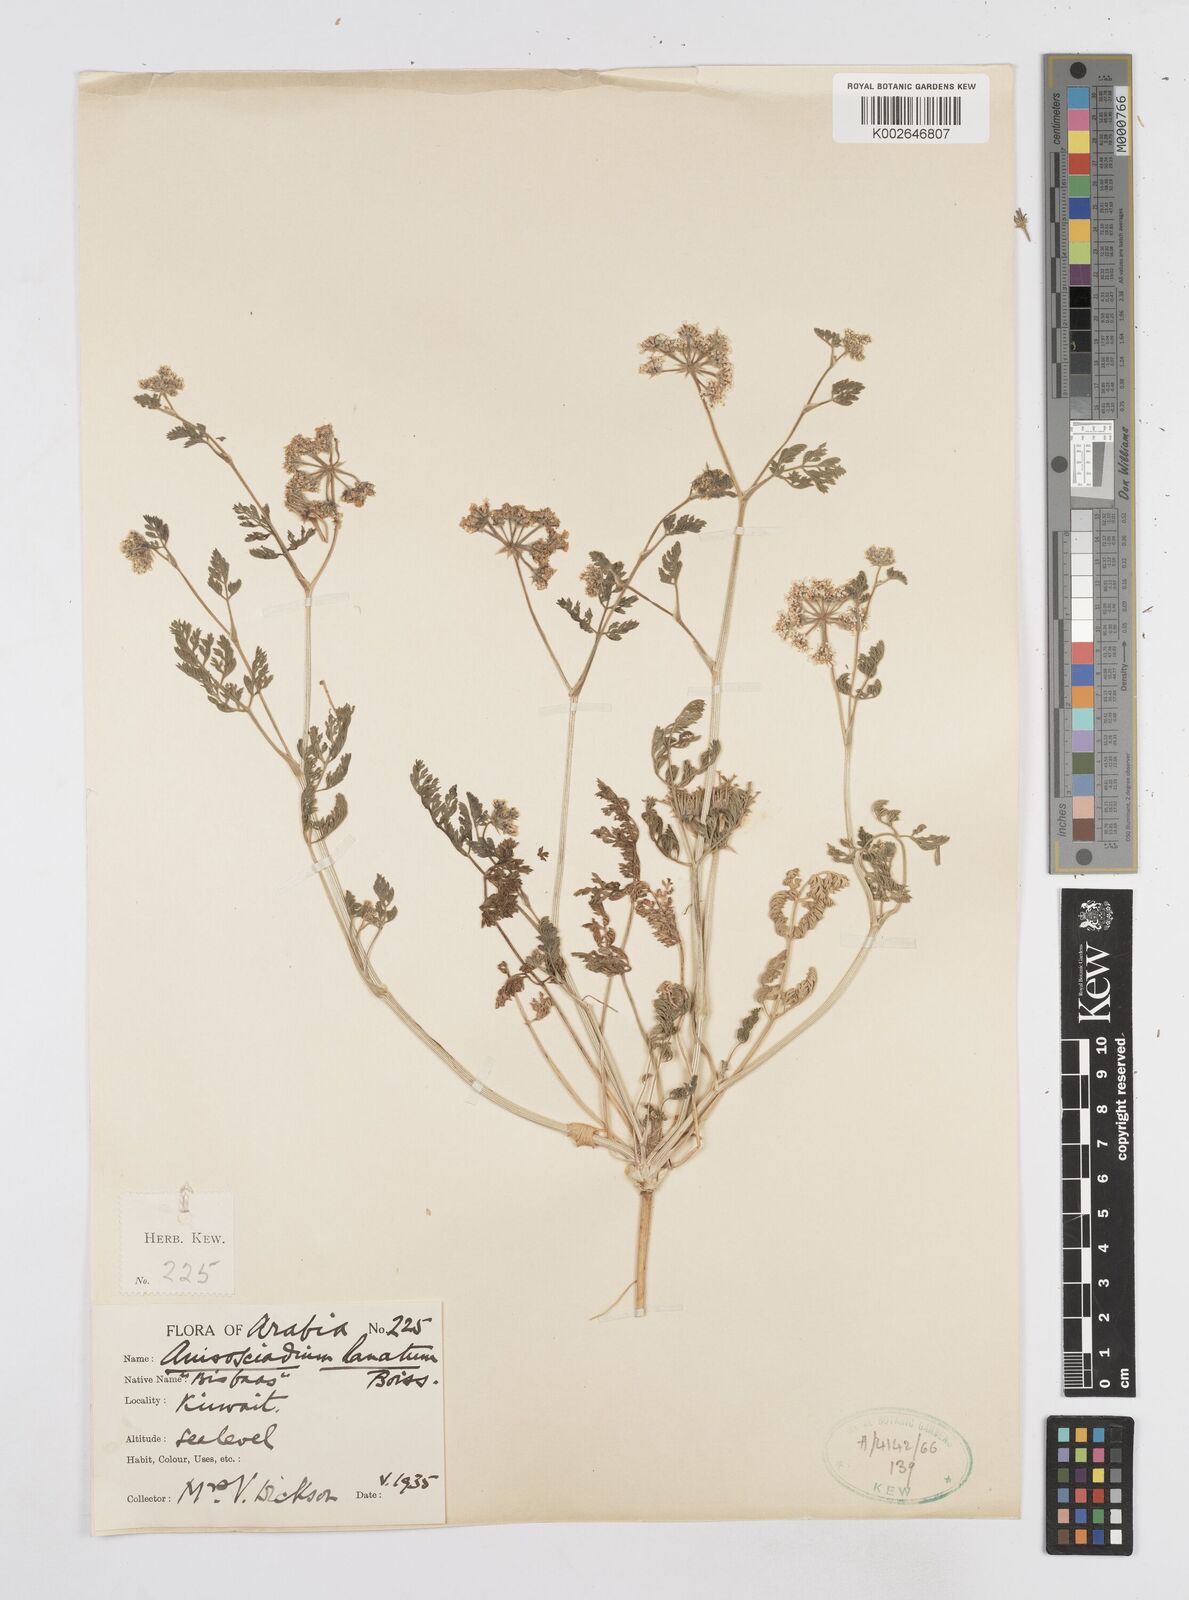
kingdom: Plantae
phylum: Tracheophyta
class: Magnoliopsida
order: Apiales
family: Apiaceae
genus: Anisosciadium
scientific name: Anisosciadium lanatum
